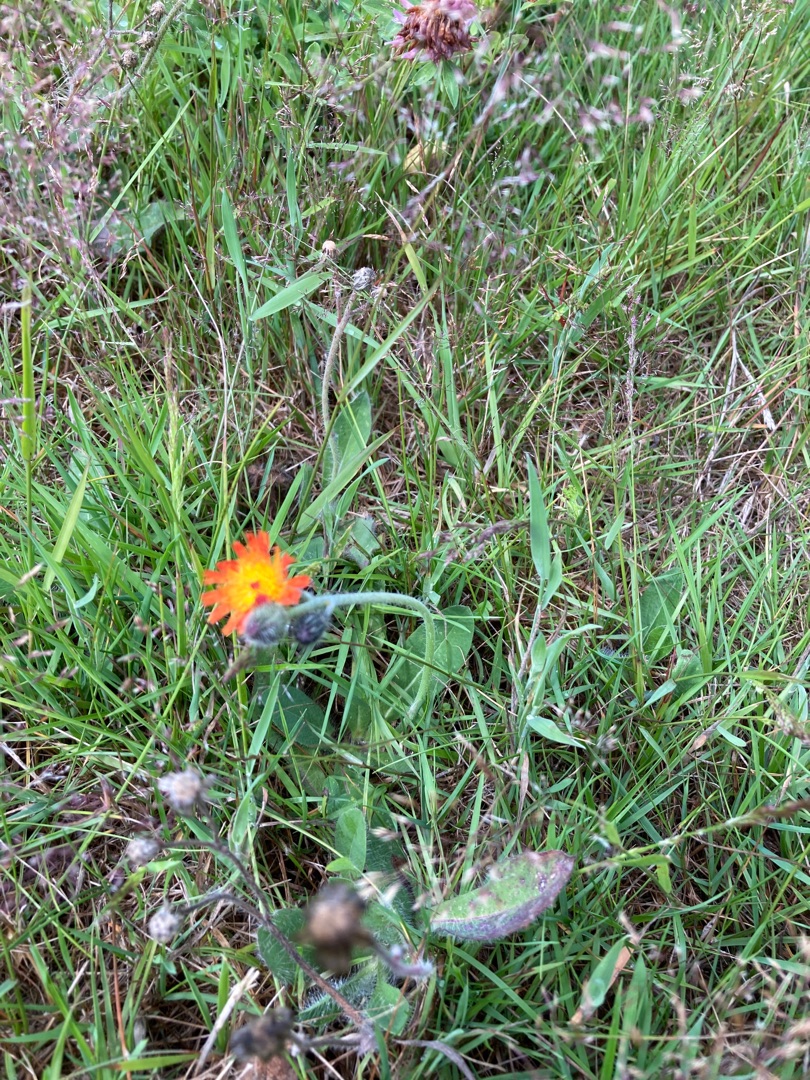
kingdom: Plantae
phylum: Tracheophyta
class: Magnoliopsida
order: Asterales
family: Asteraceae
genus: Pilosella
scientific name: Pilosella aurantiaca
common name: Pomerans-høgeurt
